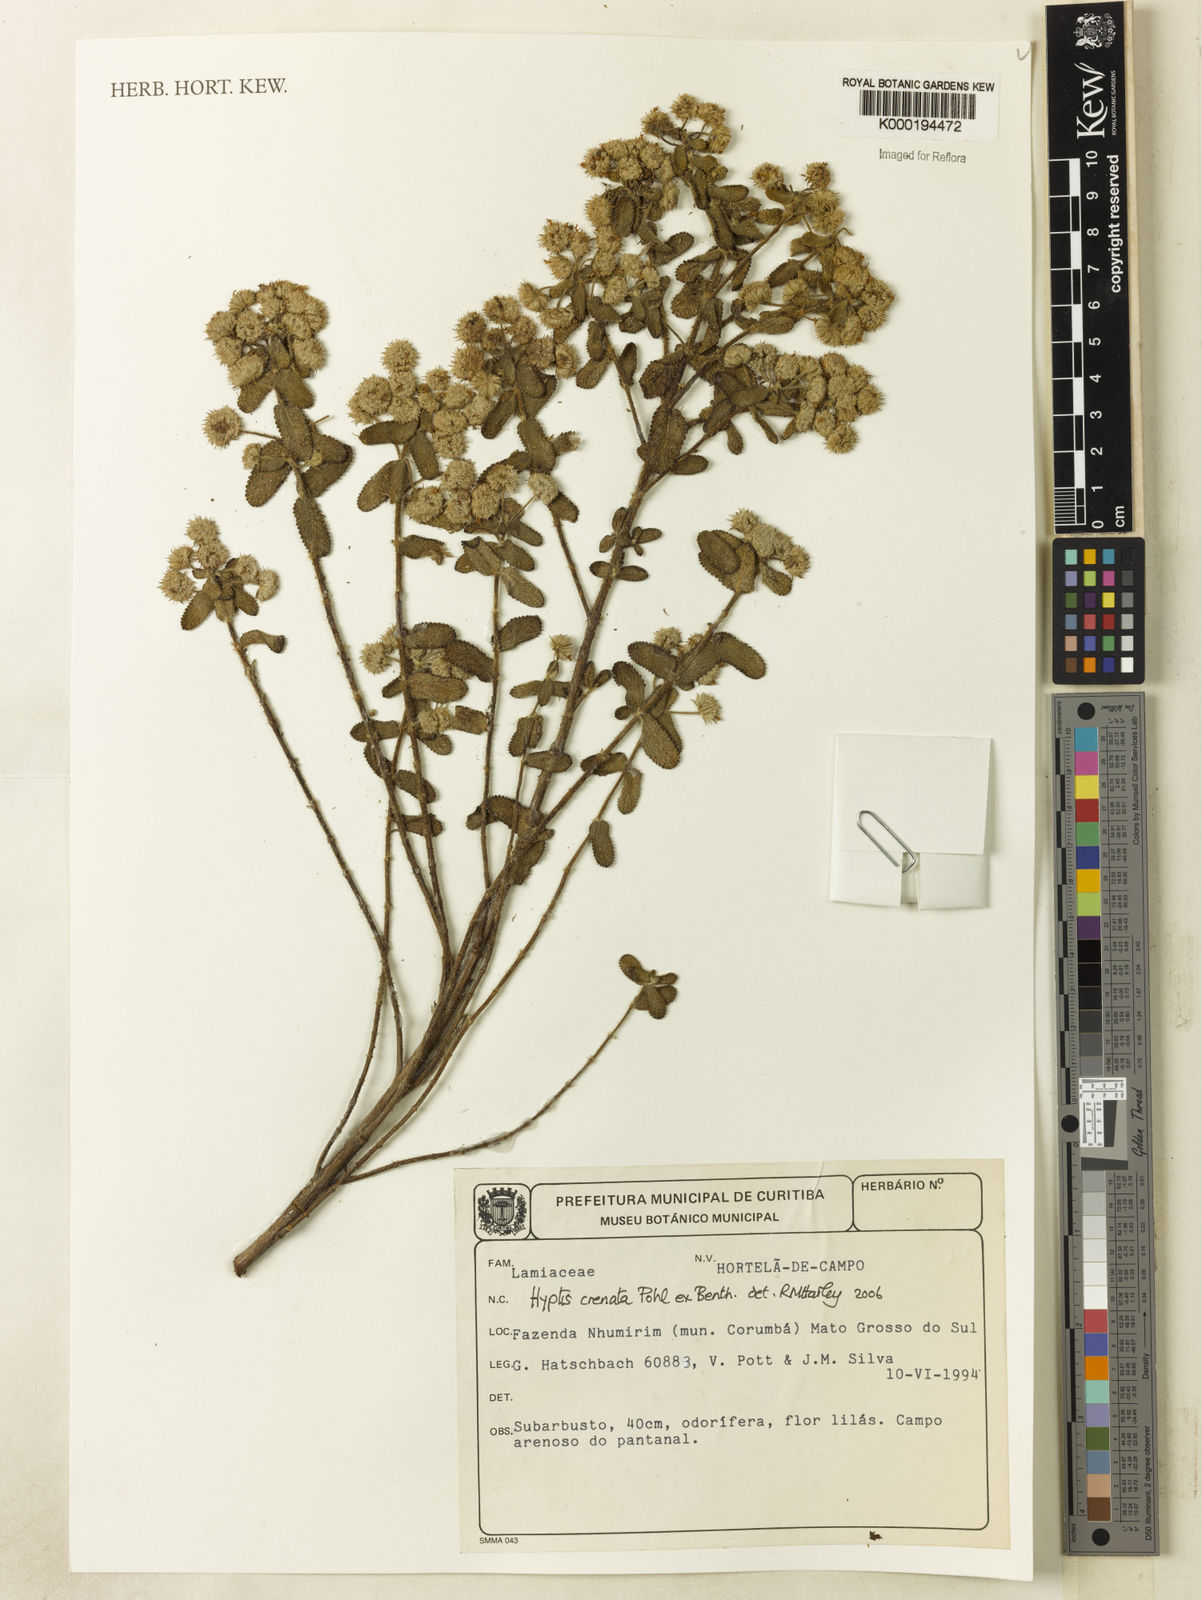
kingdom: Plantae
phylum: Tracheophyta
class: Magnoliopsida
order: Lamiales
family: Lamiaceae
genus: Hyptis
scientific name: Hyptis crenata
